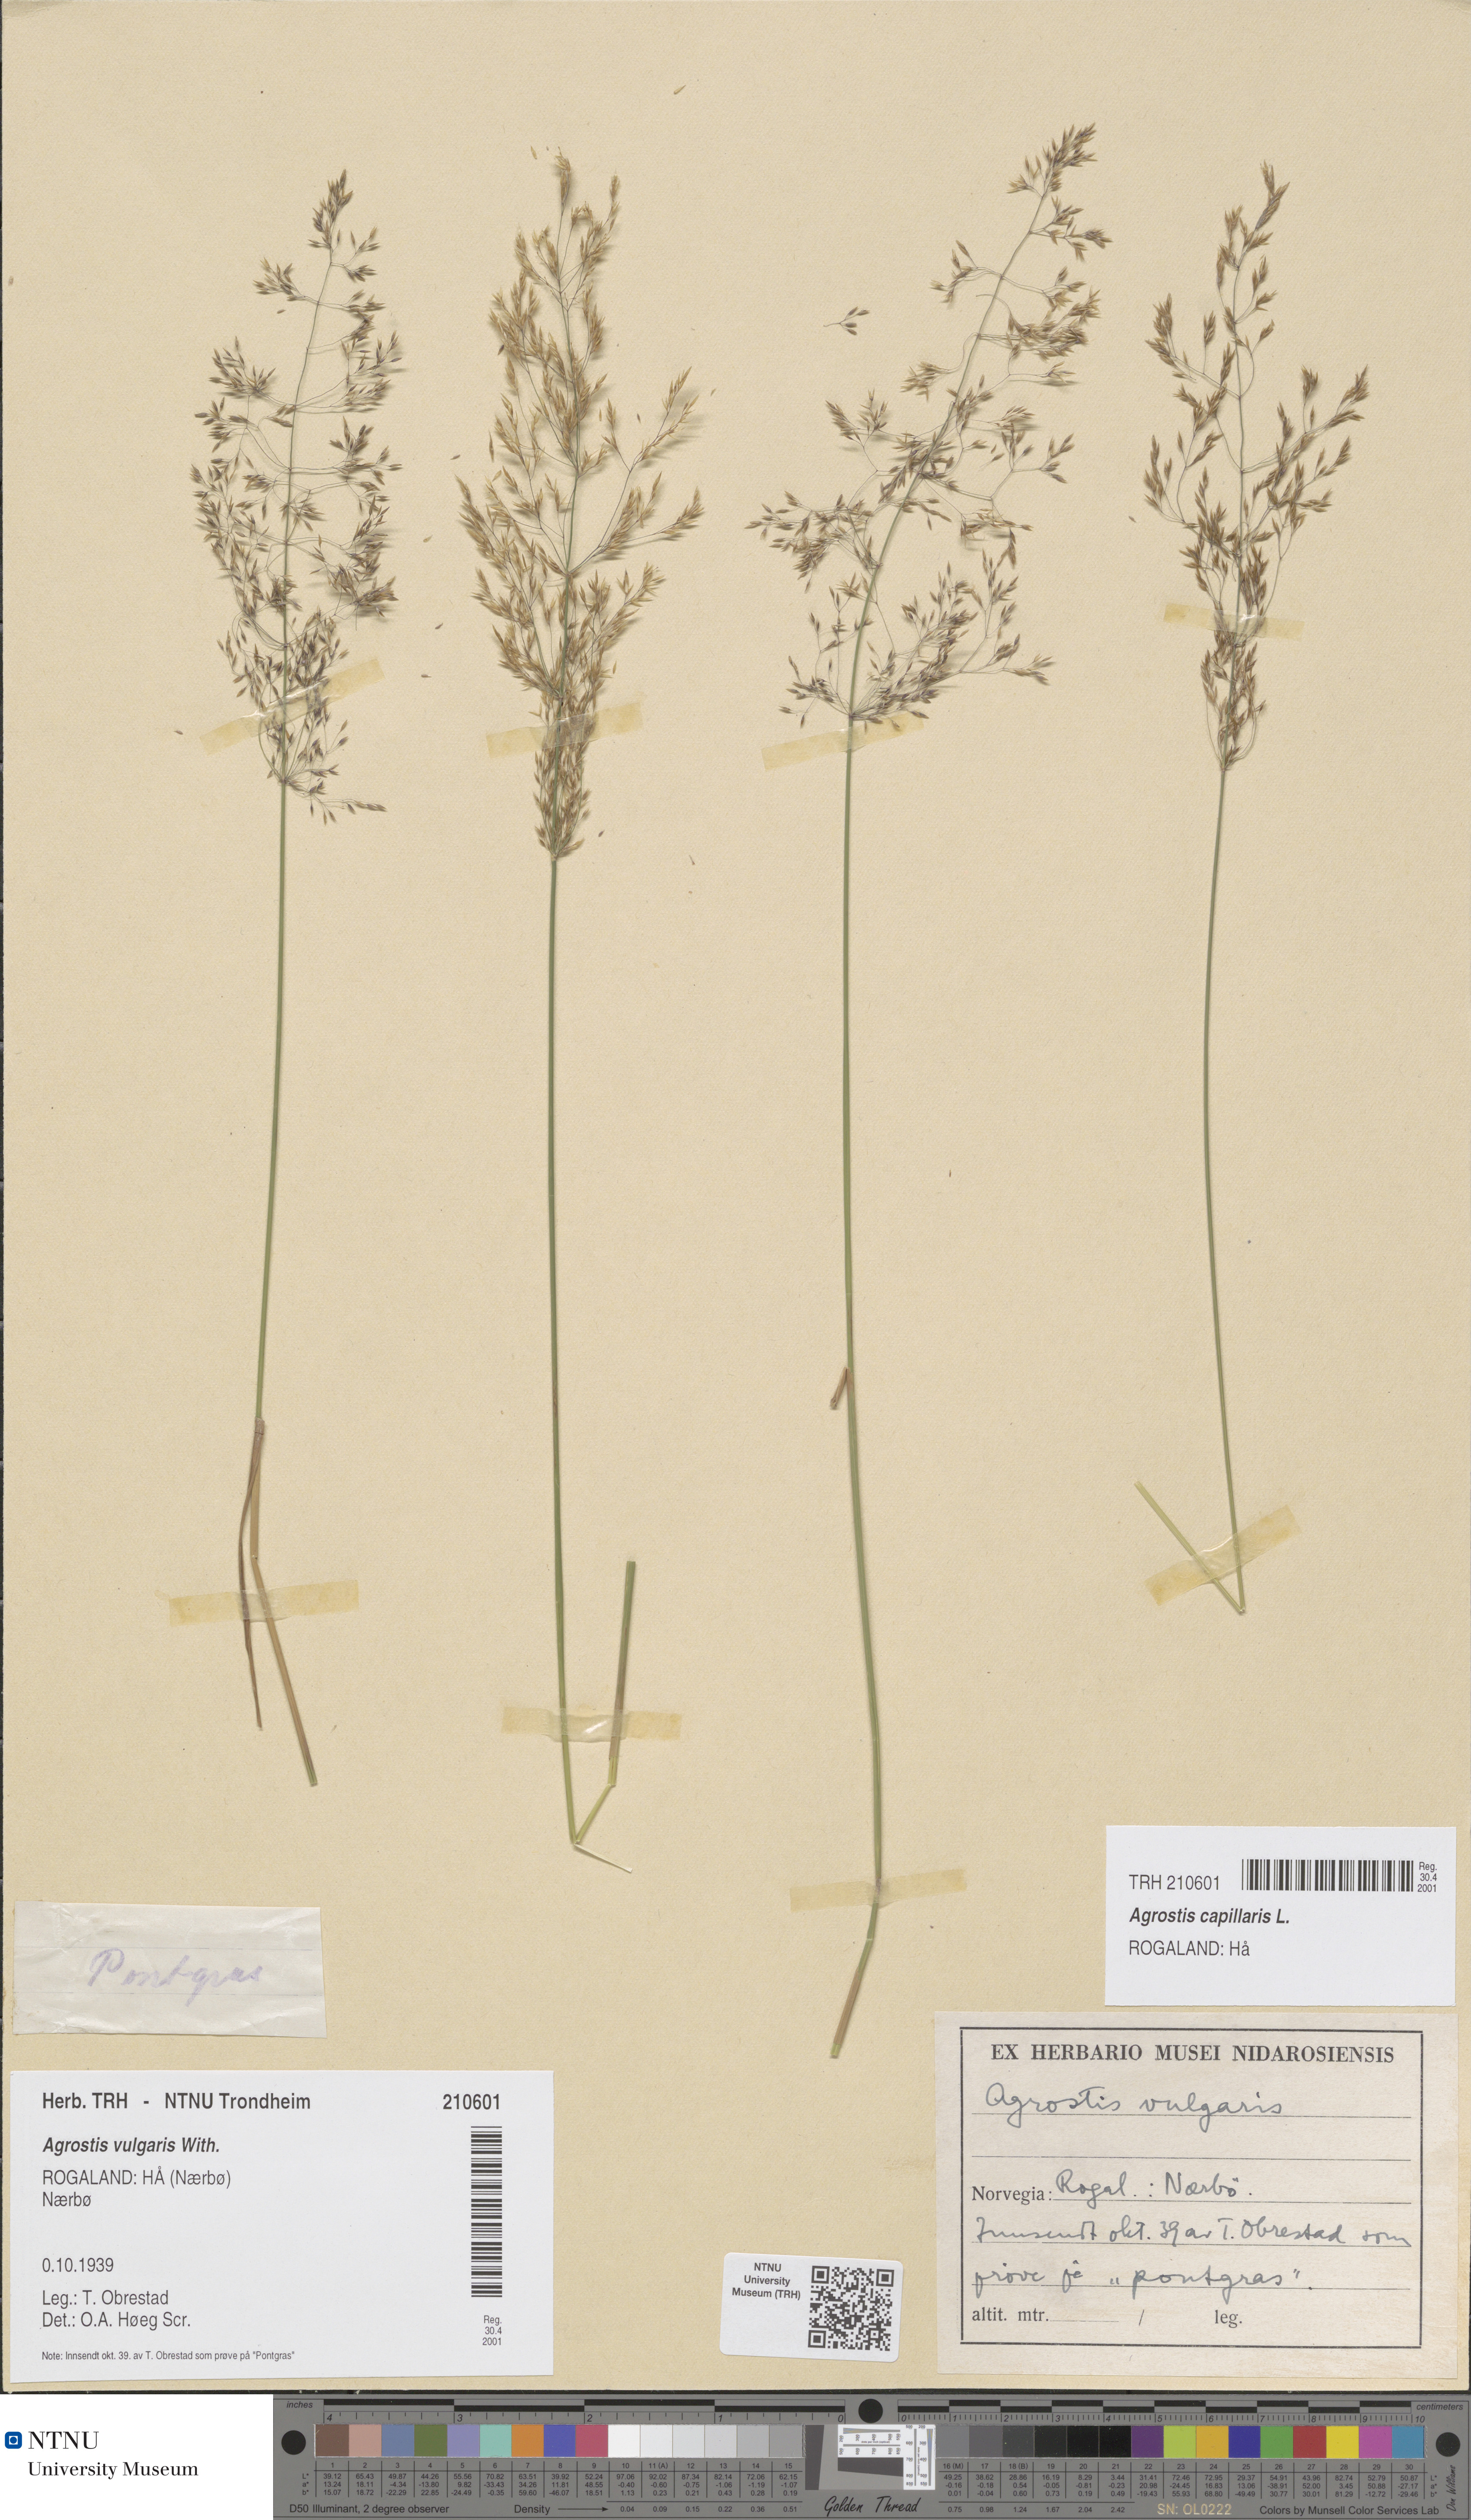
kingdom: Plantae
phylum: Tracheophyta
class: Liliopsida
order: Poales
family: Poaceae
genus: Agrostis
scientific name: Agrostis capillaris
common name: Colonial bentgrass
